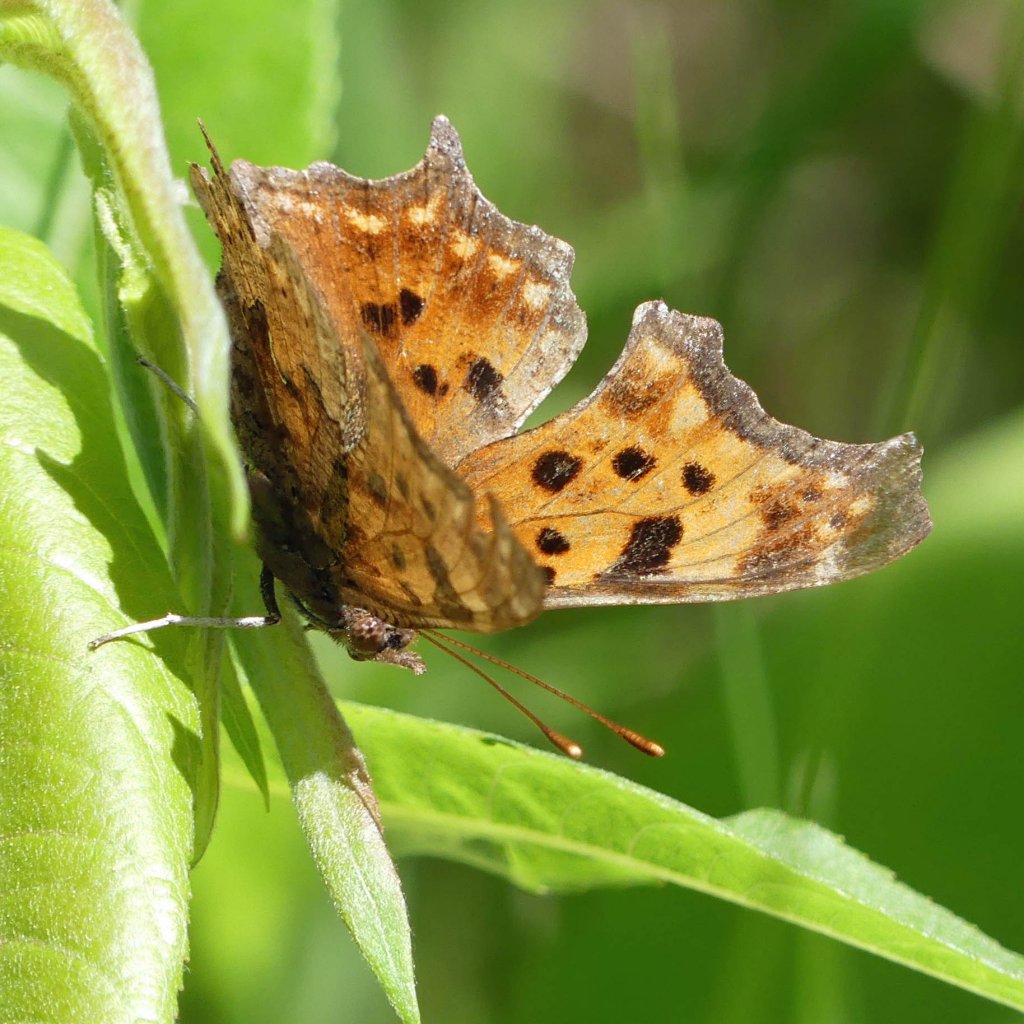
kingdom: Animalia
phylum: Arthropoda
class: Insecta
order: Lepidoptera
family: Nymphalidae
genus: Polygonia
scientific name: Polygonia comma
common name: Eastern Comma
